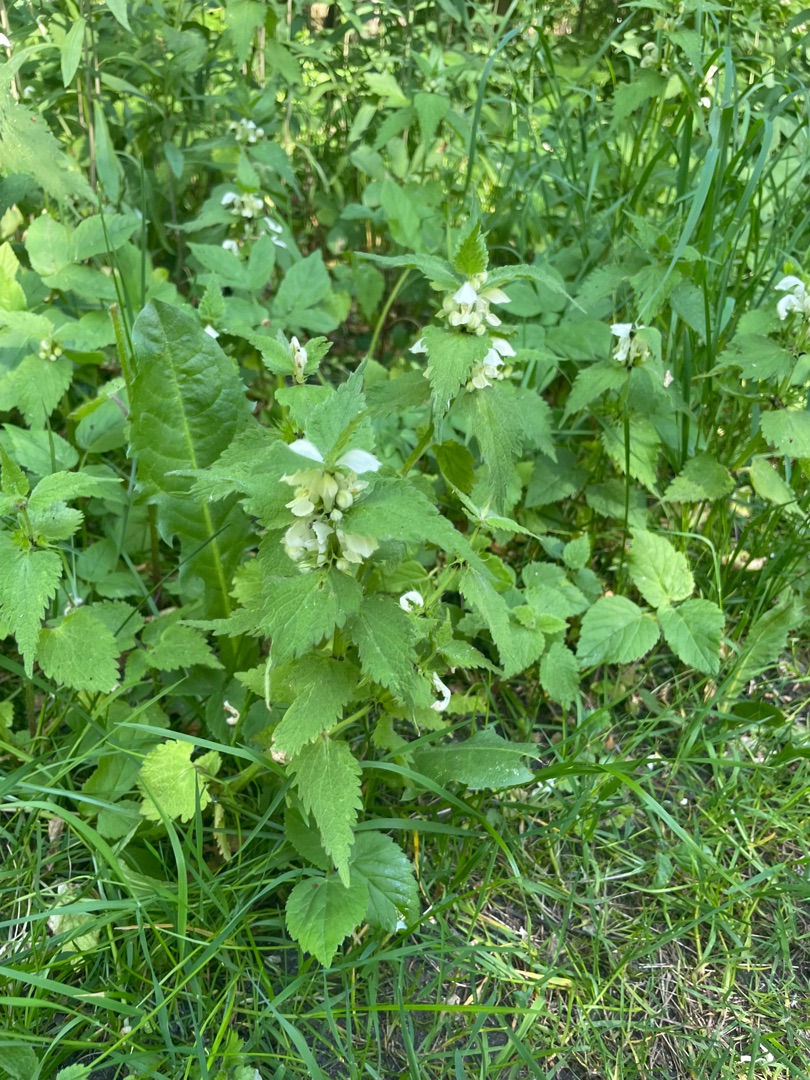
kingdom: Plantae
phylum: Tracheophyta
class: Magnoliopsida
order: Lamiales
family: Lamiaceae
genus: Lamium
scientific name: Lamium album
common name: Døvnælde
